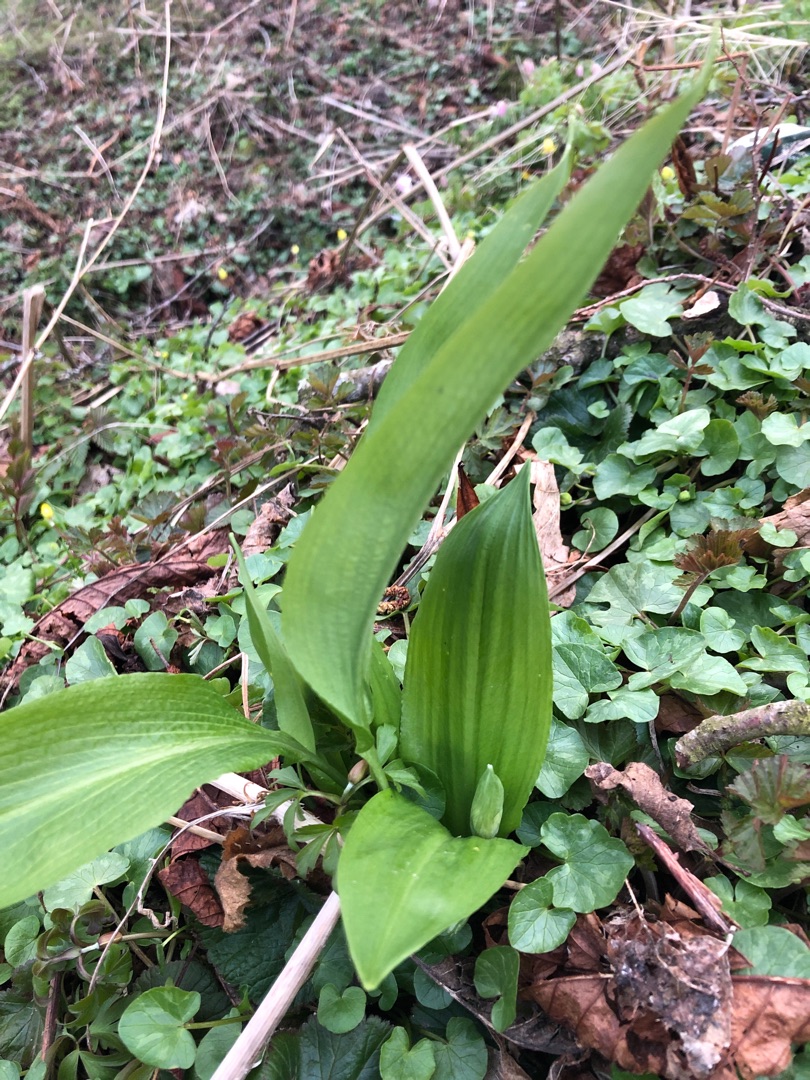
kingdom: Plantae
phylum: Tracheophyta
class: Liliopsida
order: Asparagales
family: Amaryllidaceae
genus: Allium
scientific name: Allium ursinum
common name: Rams-løg
